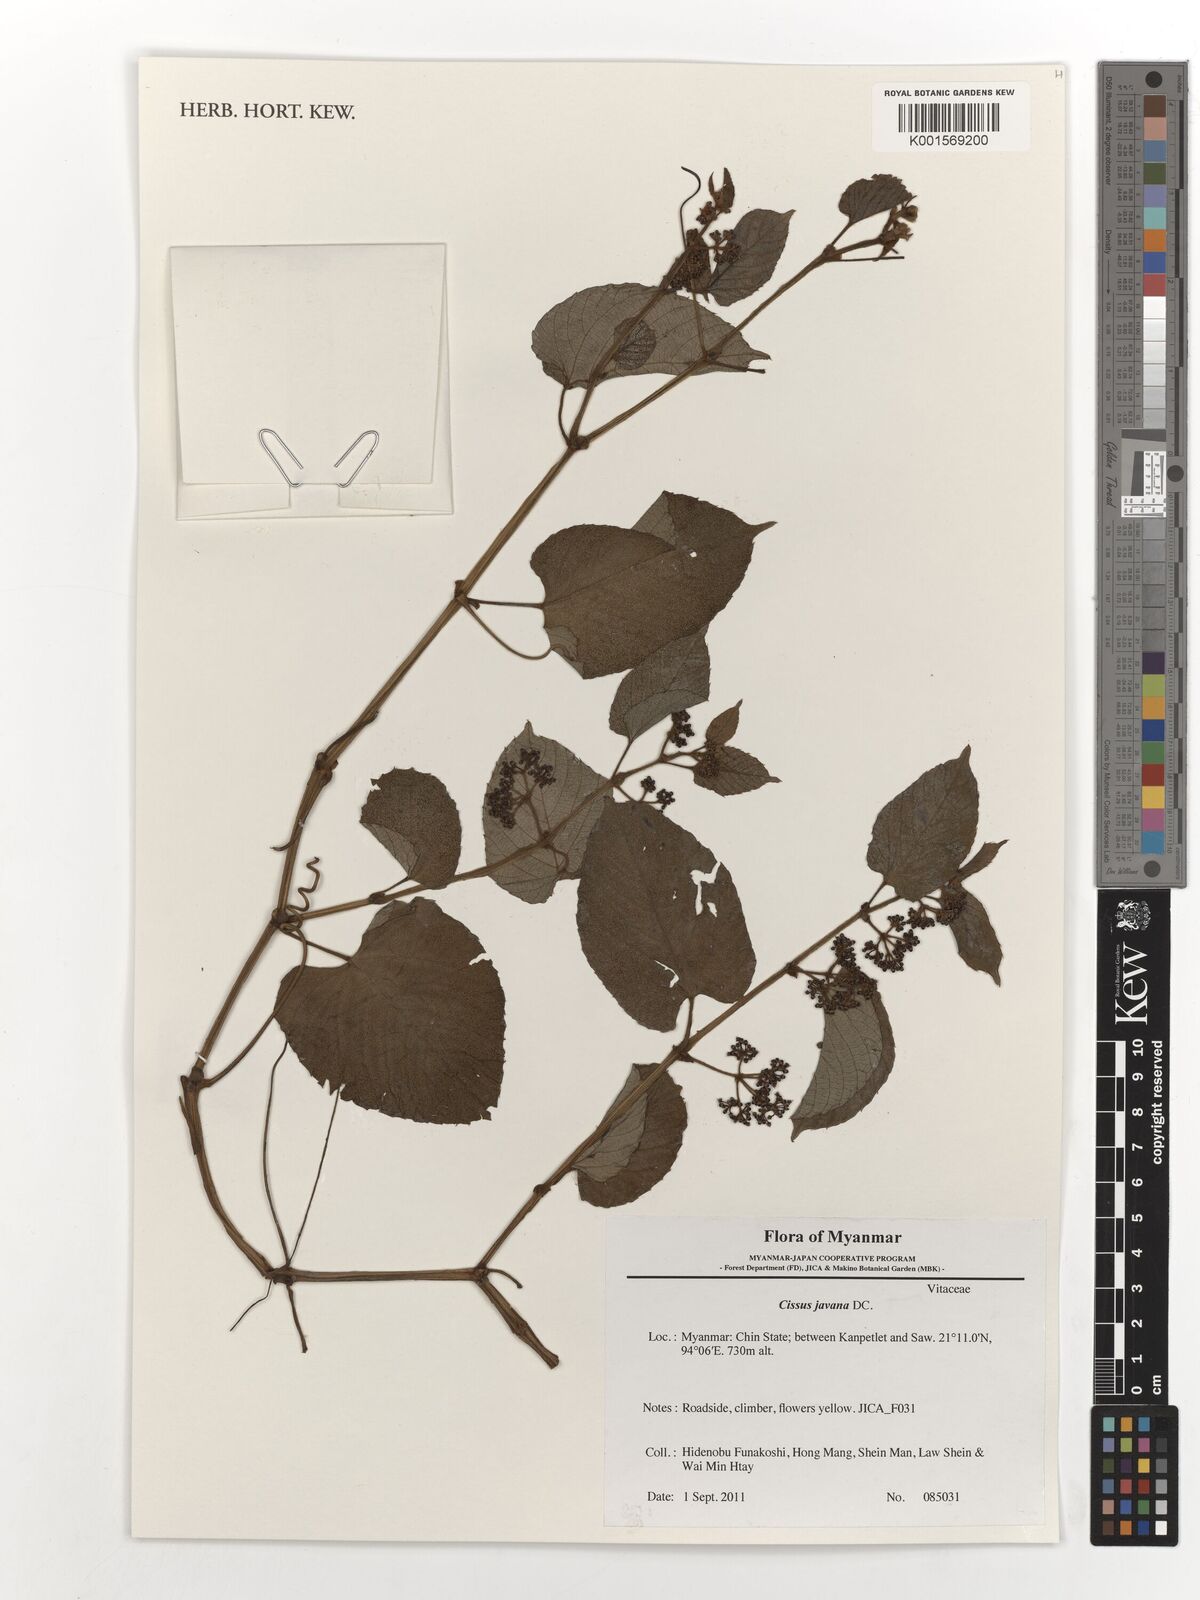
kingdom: Plantae
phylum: Tracheophyta
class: Magnoliopsida
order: Vitales
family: Vitaceae
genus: Cissus
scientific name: Cissus discolor
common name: Climbing-begonia
